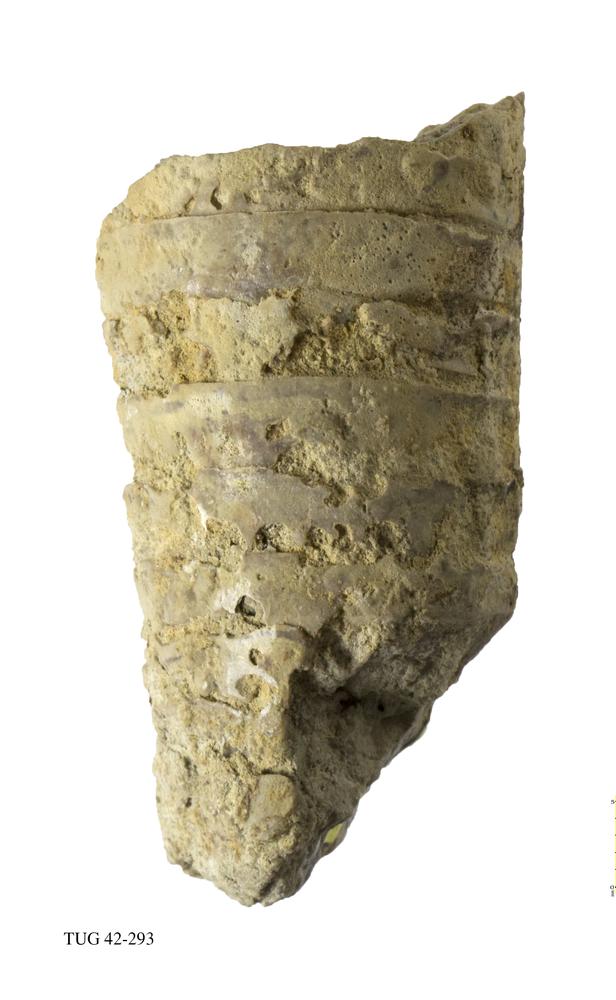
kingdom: Animalia
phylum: Mollusca
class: Cephalopoda
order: Orthocerida
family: Orthoceratidae
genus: Orthoceras
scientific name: Orthoceras
